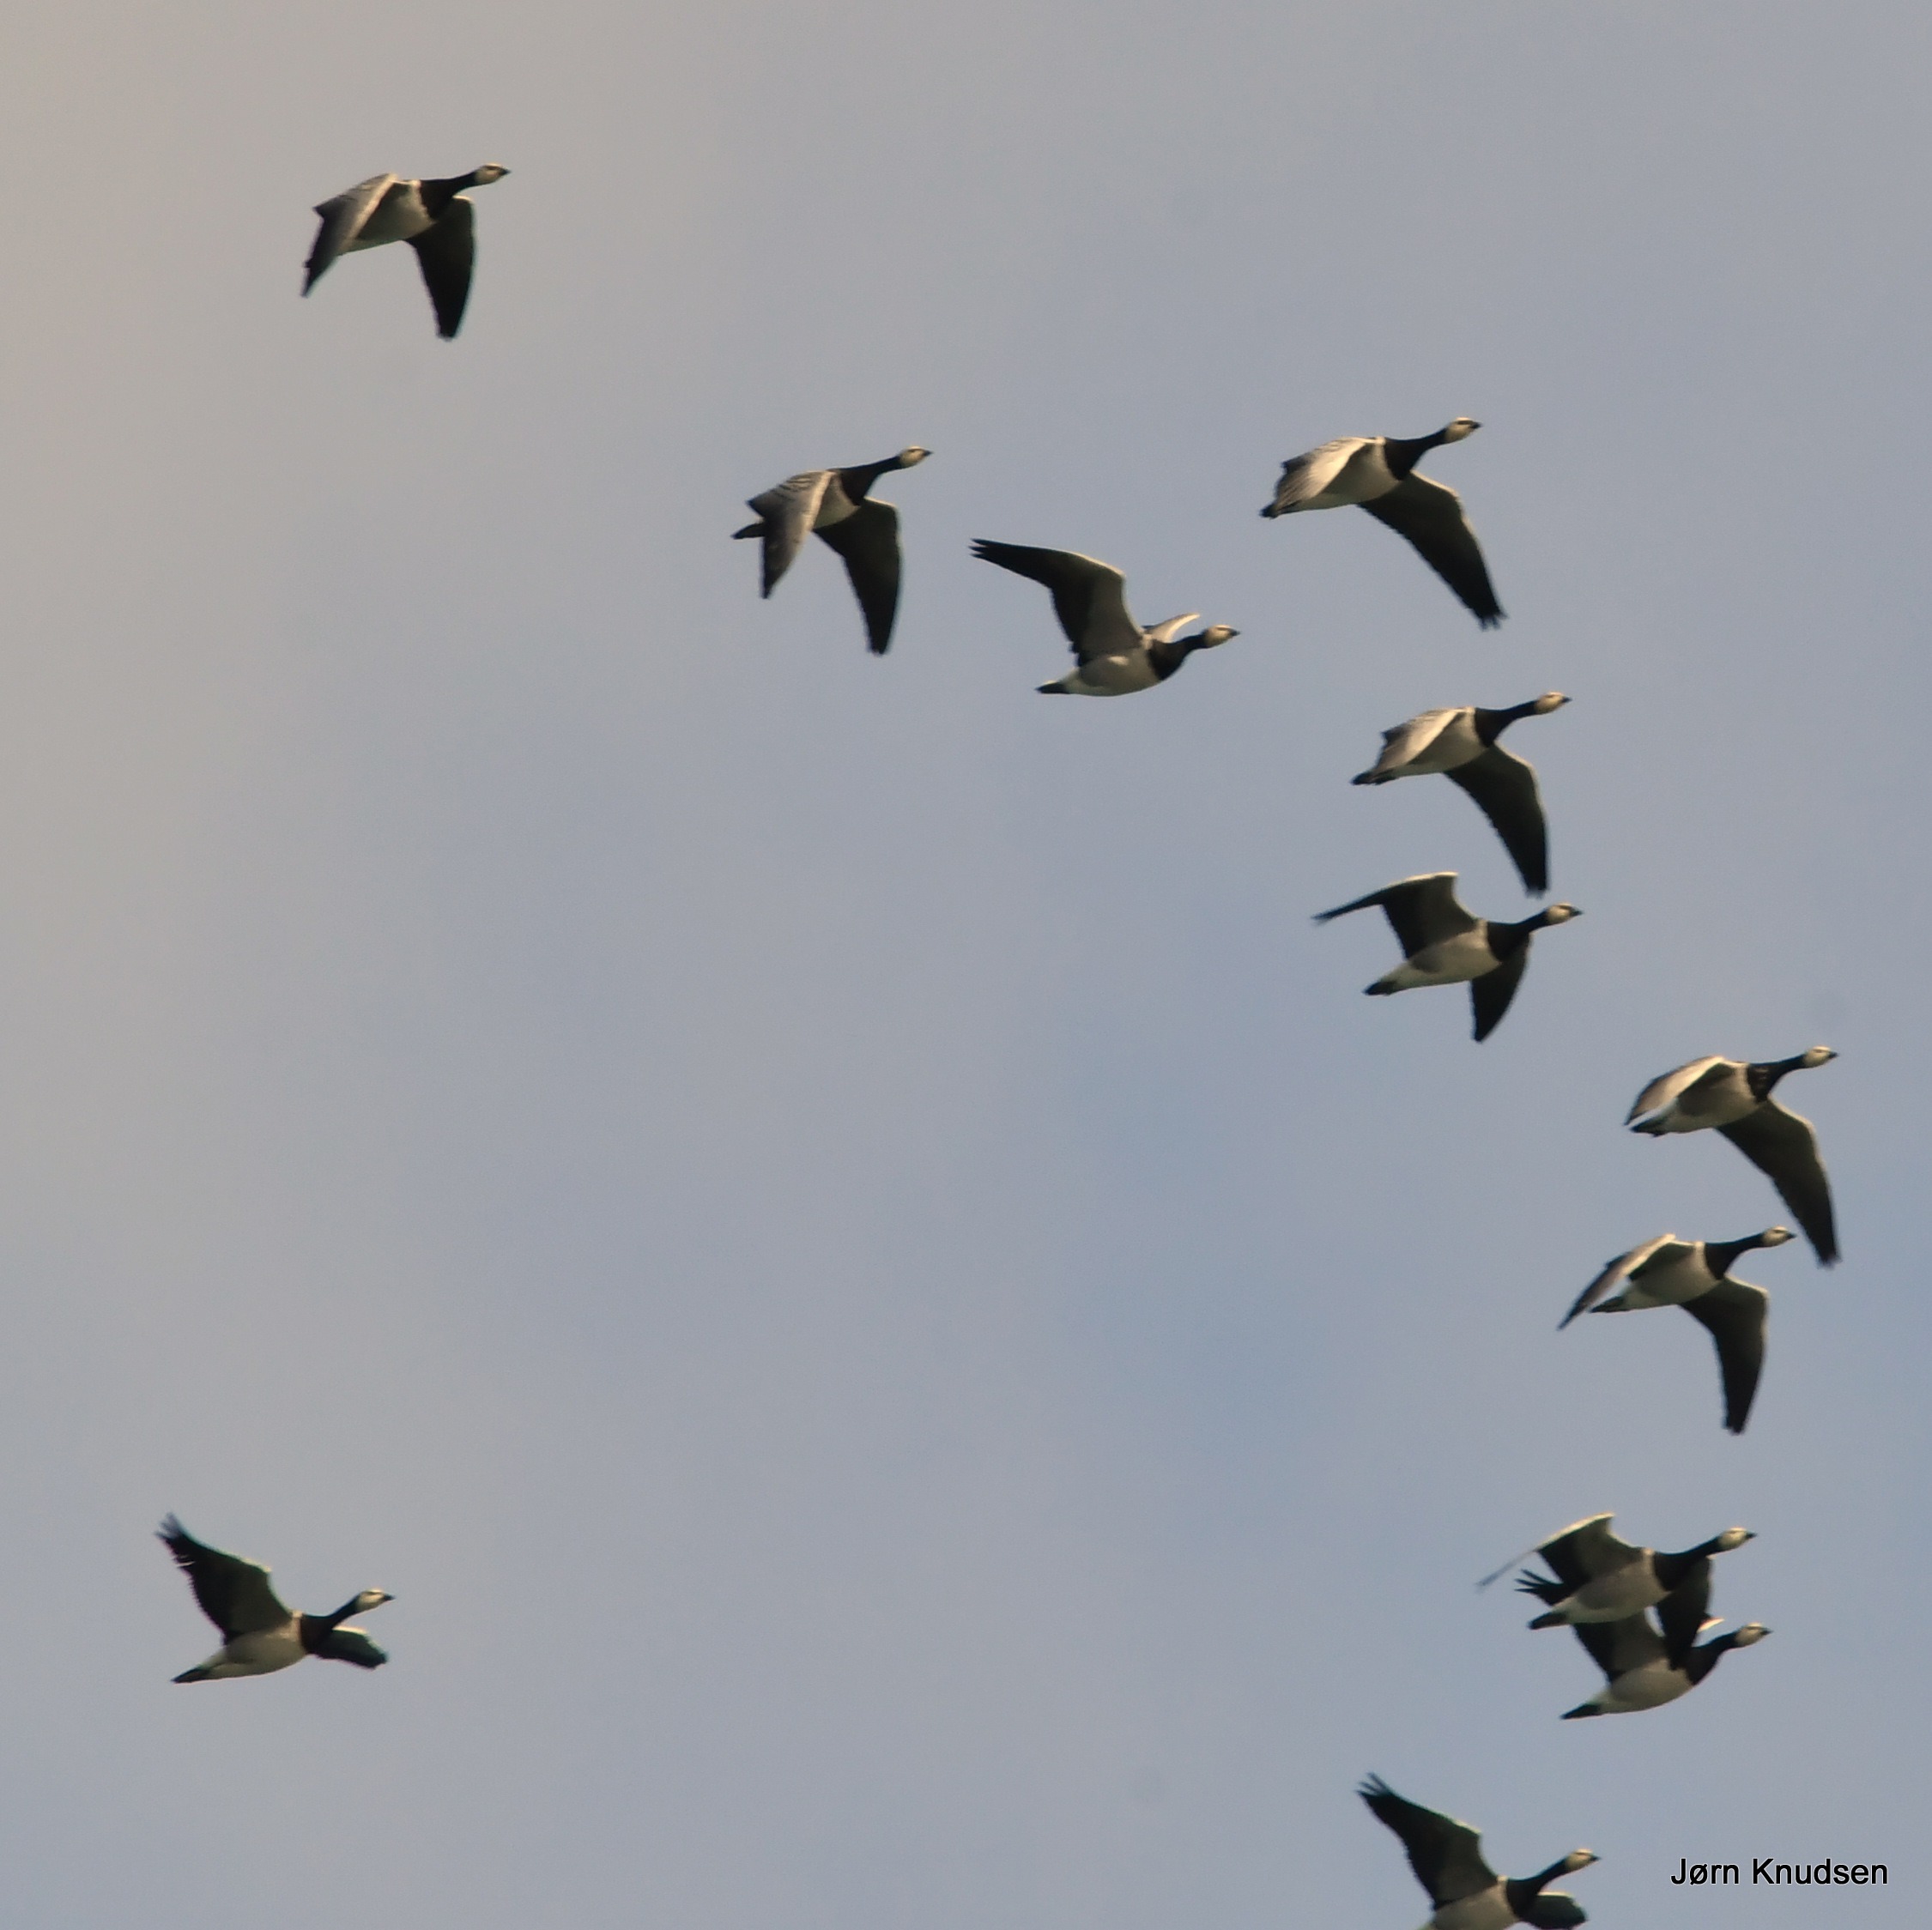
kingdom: Animalia
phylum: Chordata
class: Aves
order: Anseriformes
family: Anatidae
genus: Branta
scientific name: Branta leucopsis
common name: Bramgås
